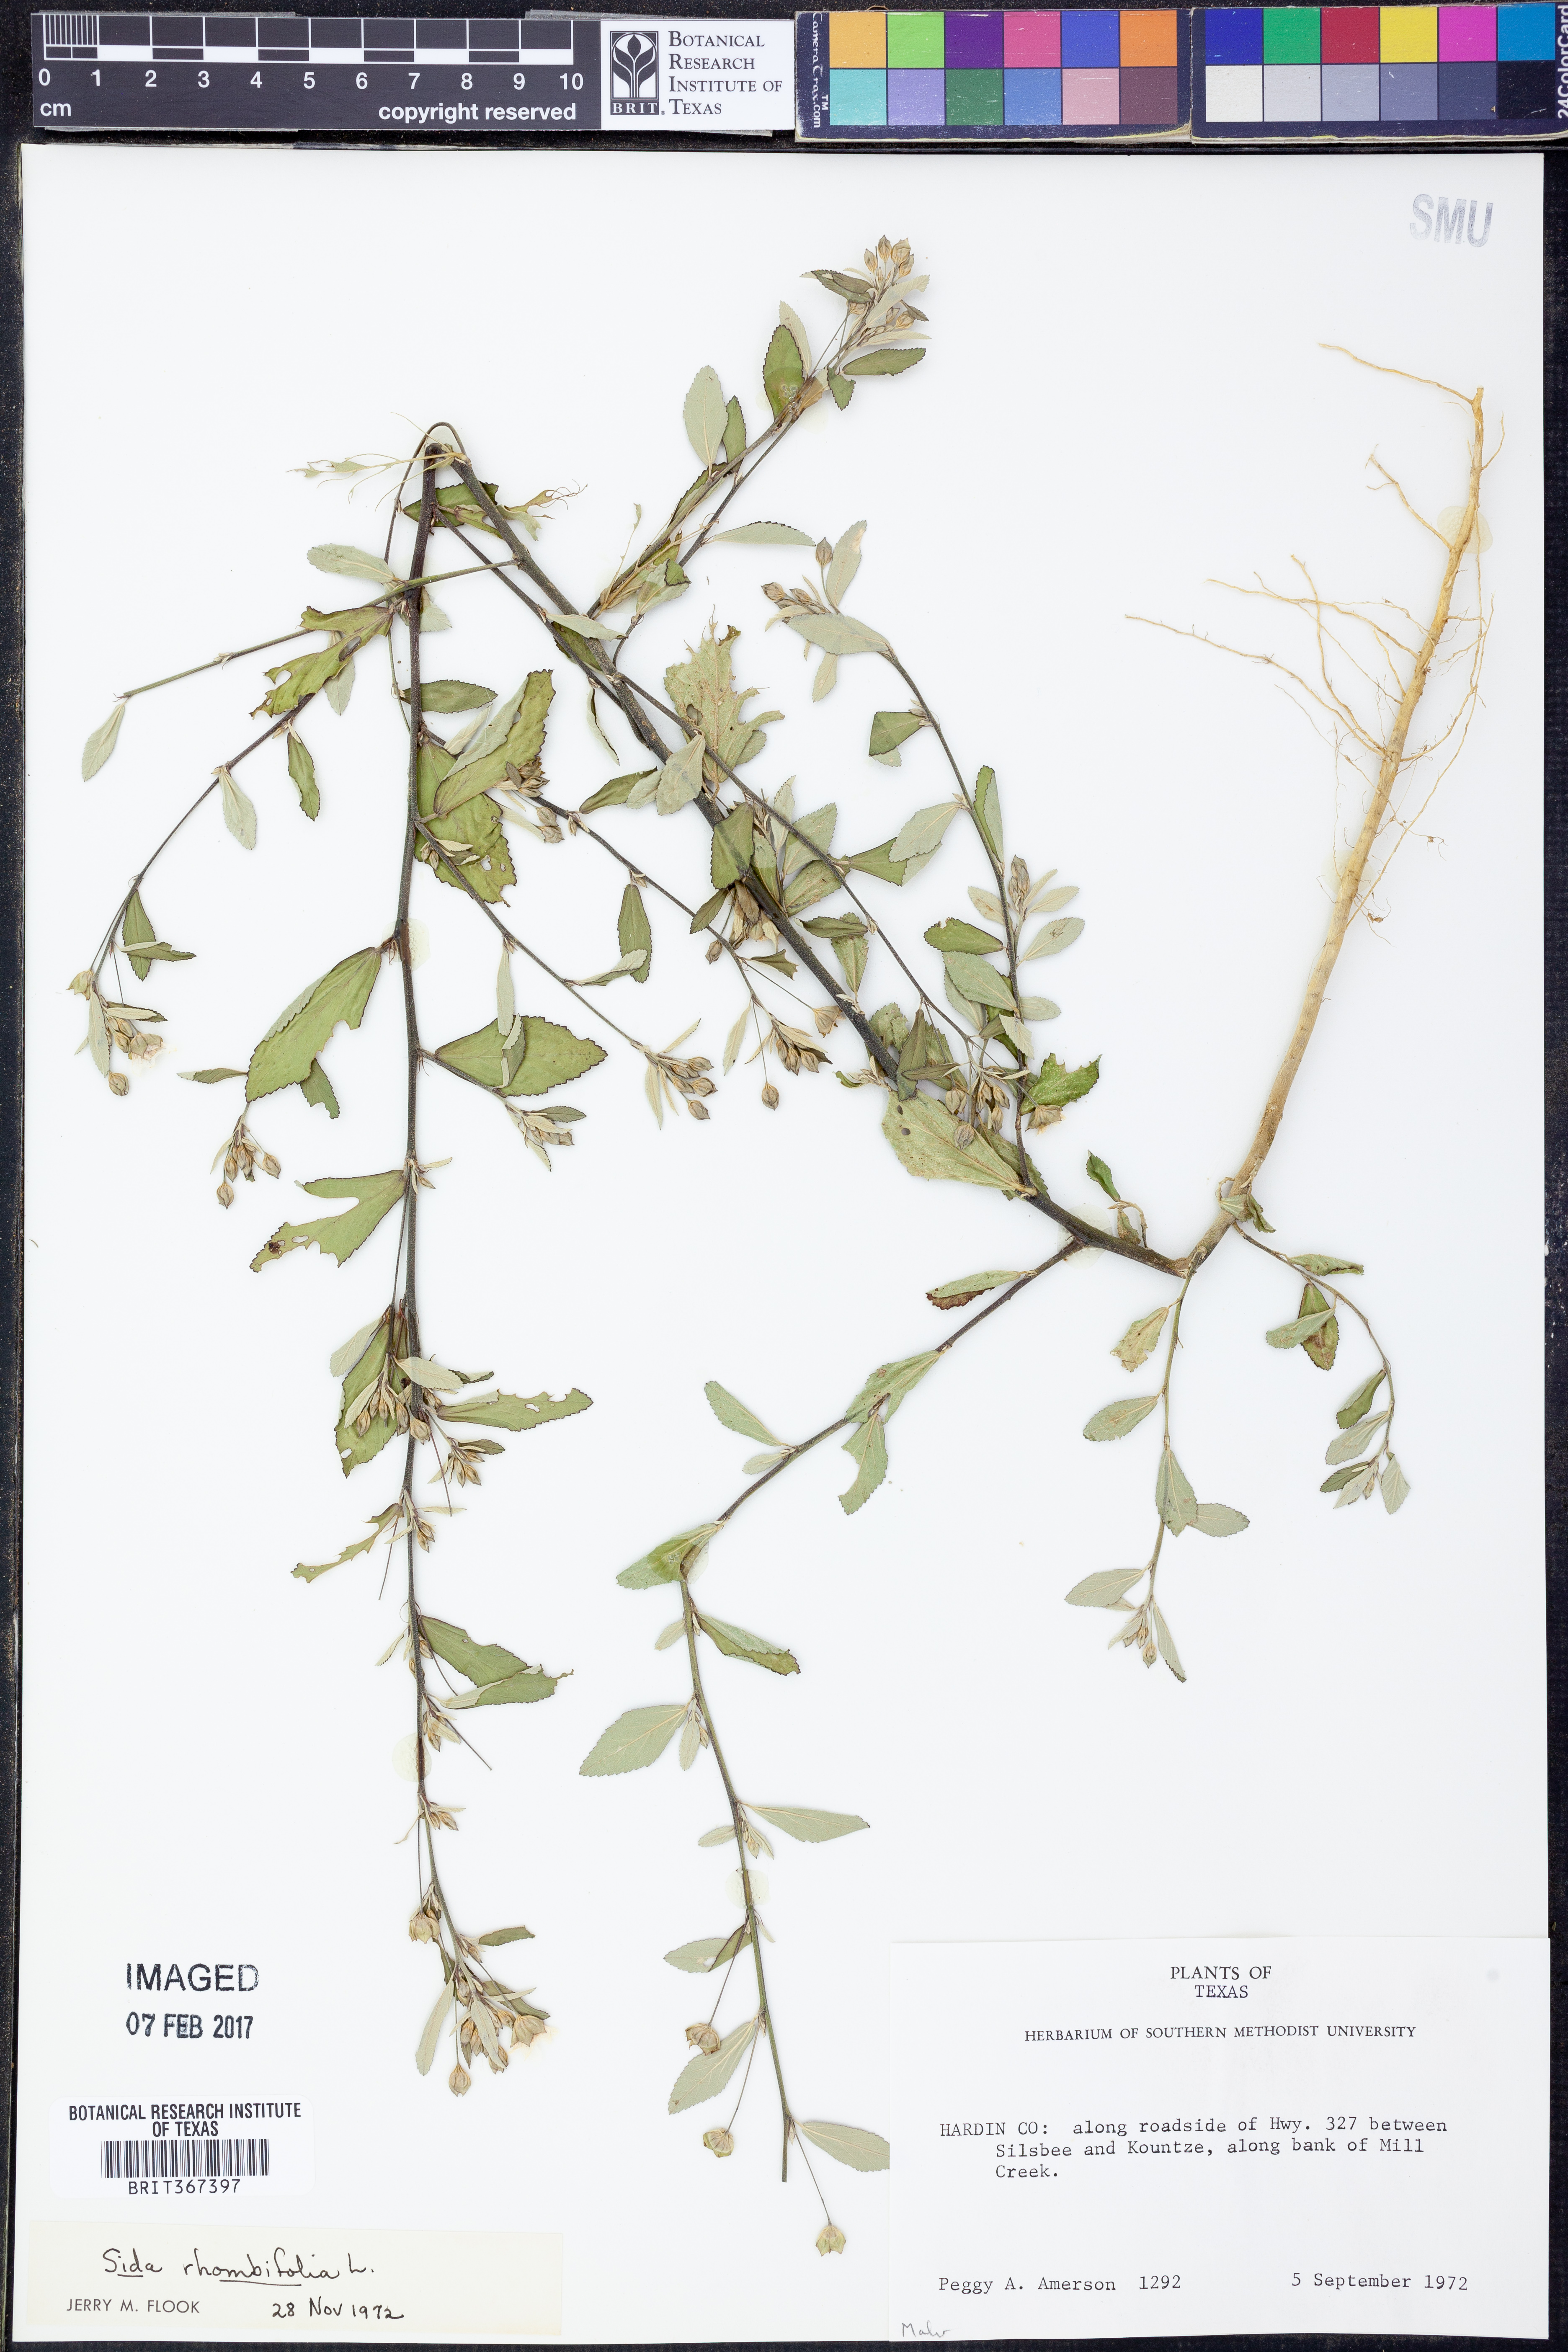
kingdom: Plantae
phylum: Tracheophyta
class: Magnoliopsida
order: Malvales
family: Malvaceae
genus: Sida
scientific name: Sida rhombifolia
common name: Queensland-hemp
